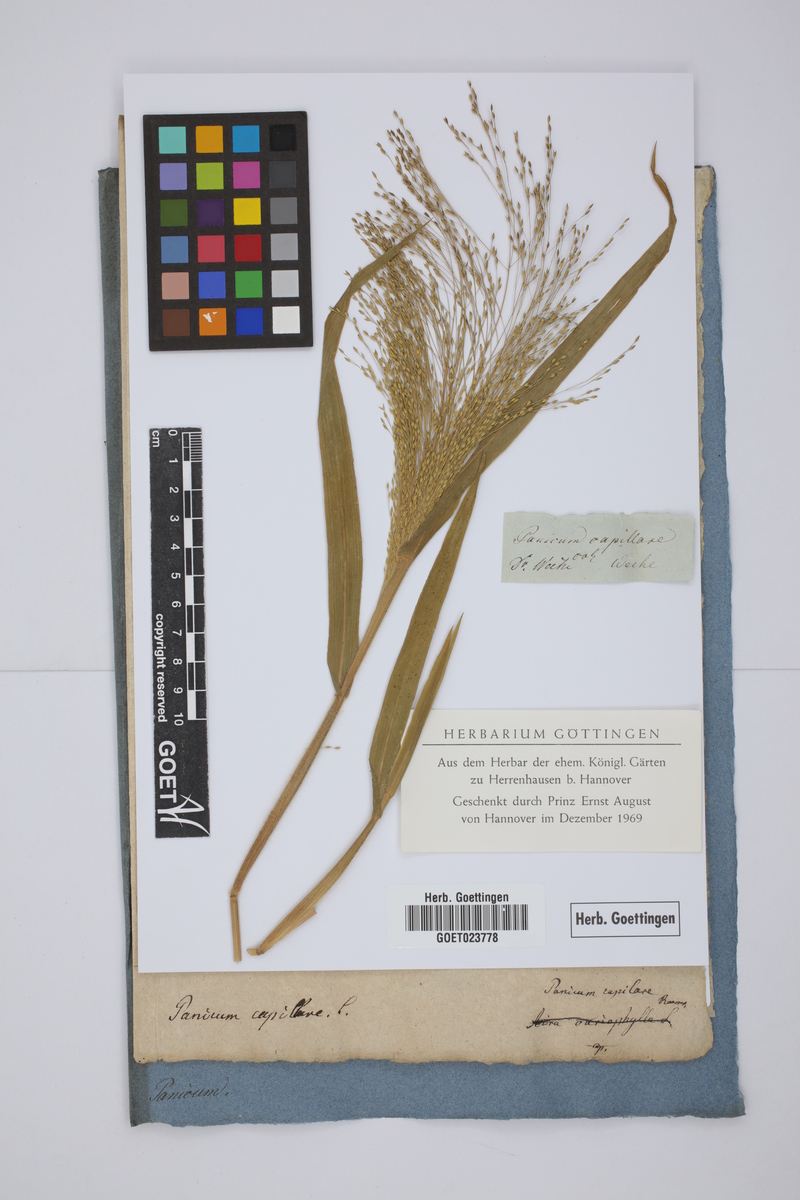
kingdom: Plantae
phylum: Tracheophyta
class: Liliopsida
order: Poales
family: Poaceae
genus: Panicum
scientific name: Panicum capillare
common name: Witch-grass
